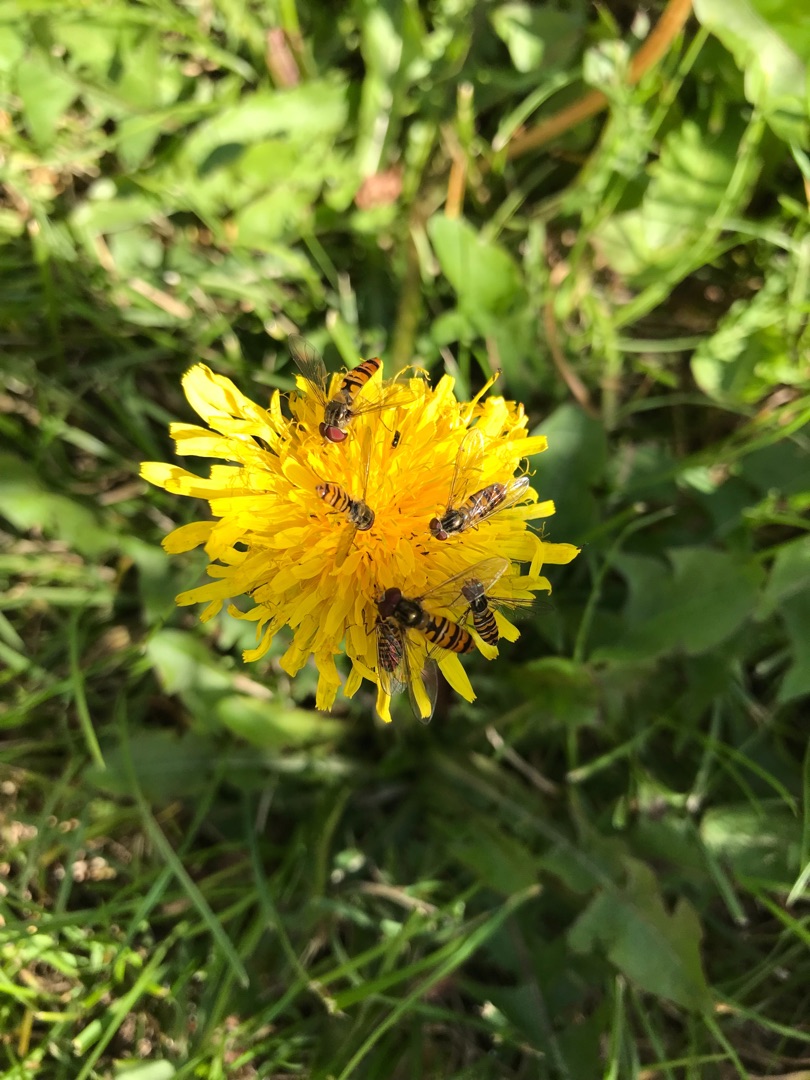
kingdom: Animalia
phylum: Arthropoda
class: Insecta
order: Diptera
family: Syrphidae
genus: Episyrphus
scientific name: Episyrphus balteatus
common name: Dobbeltbåndet svirreflue
